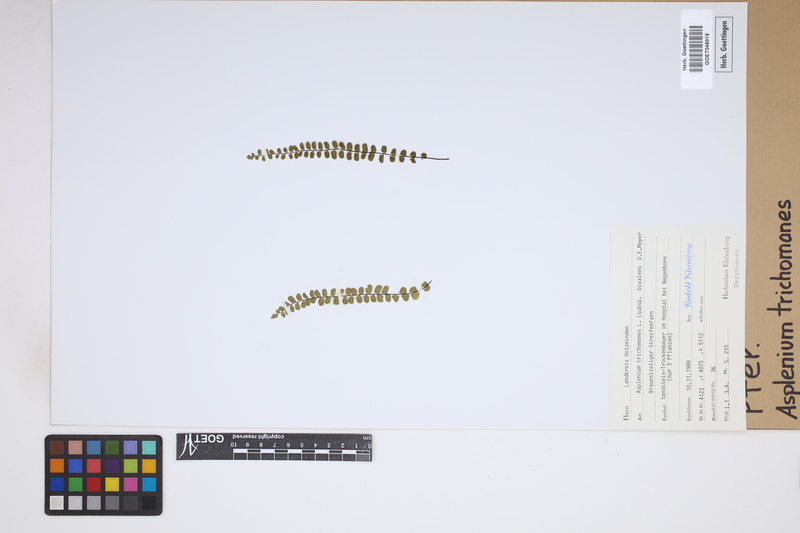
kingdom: Plantae
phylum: Tracheophyta
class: Polypodiopsida
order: Polypodiales
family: Aspleniaceae
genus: Asplenium
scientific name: Asplenium trichomanes
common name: Maidenhair spleenwort
